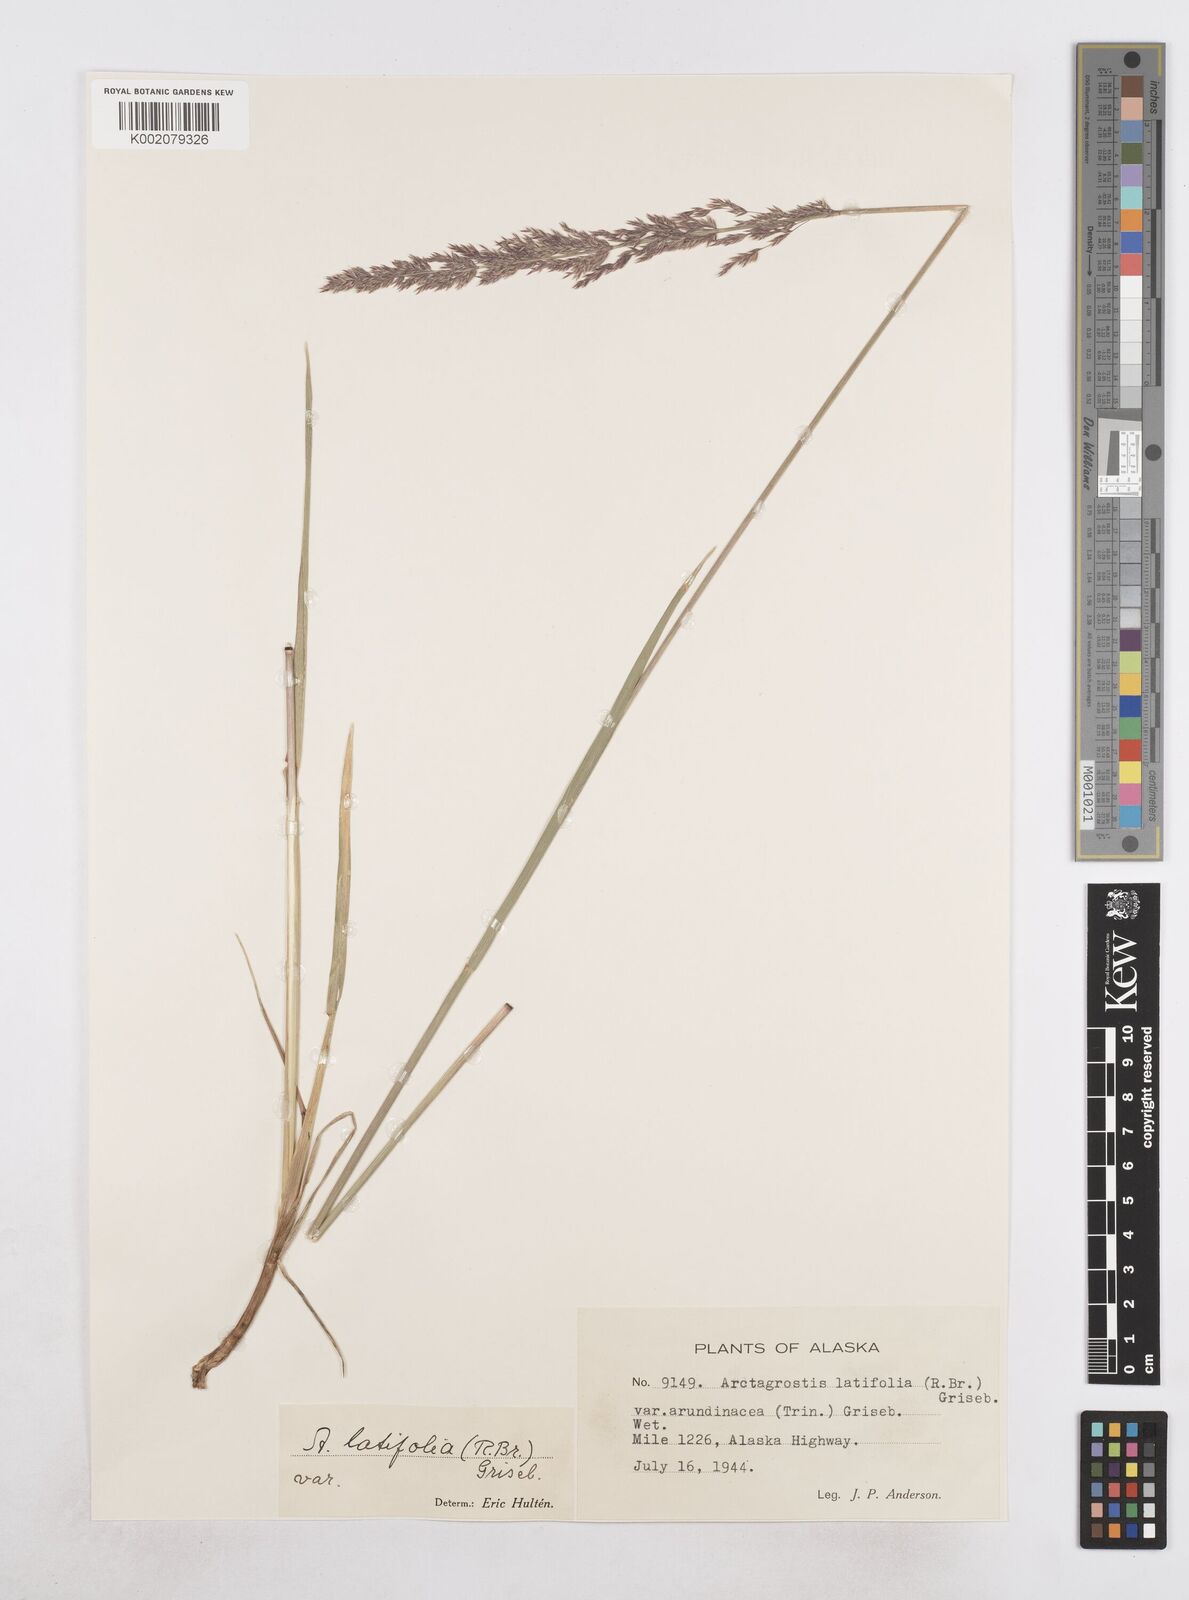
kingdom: Plantae
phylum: Tracheophyta
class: Liliopsida
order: Poales
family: Poaceae
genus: Arctagrostis
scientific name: Arctagrostis arundinacea
